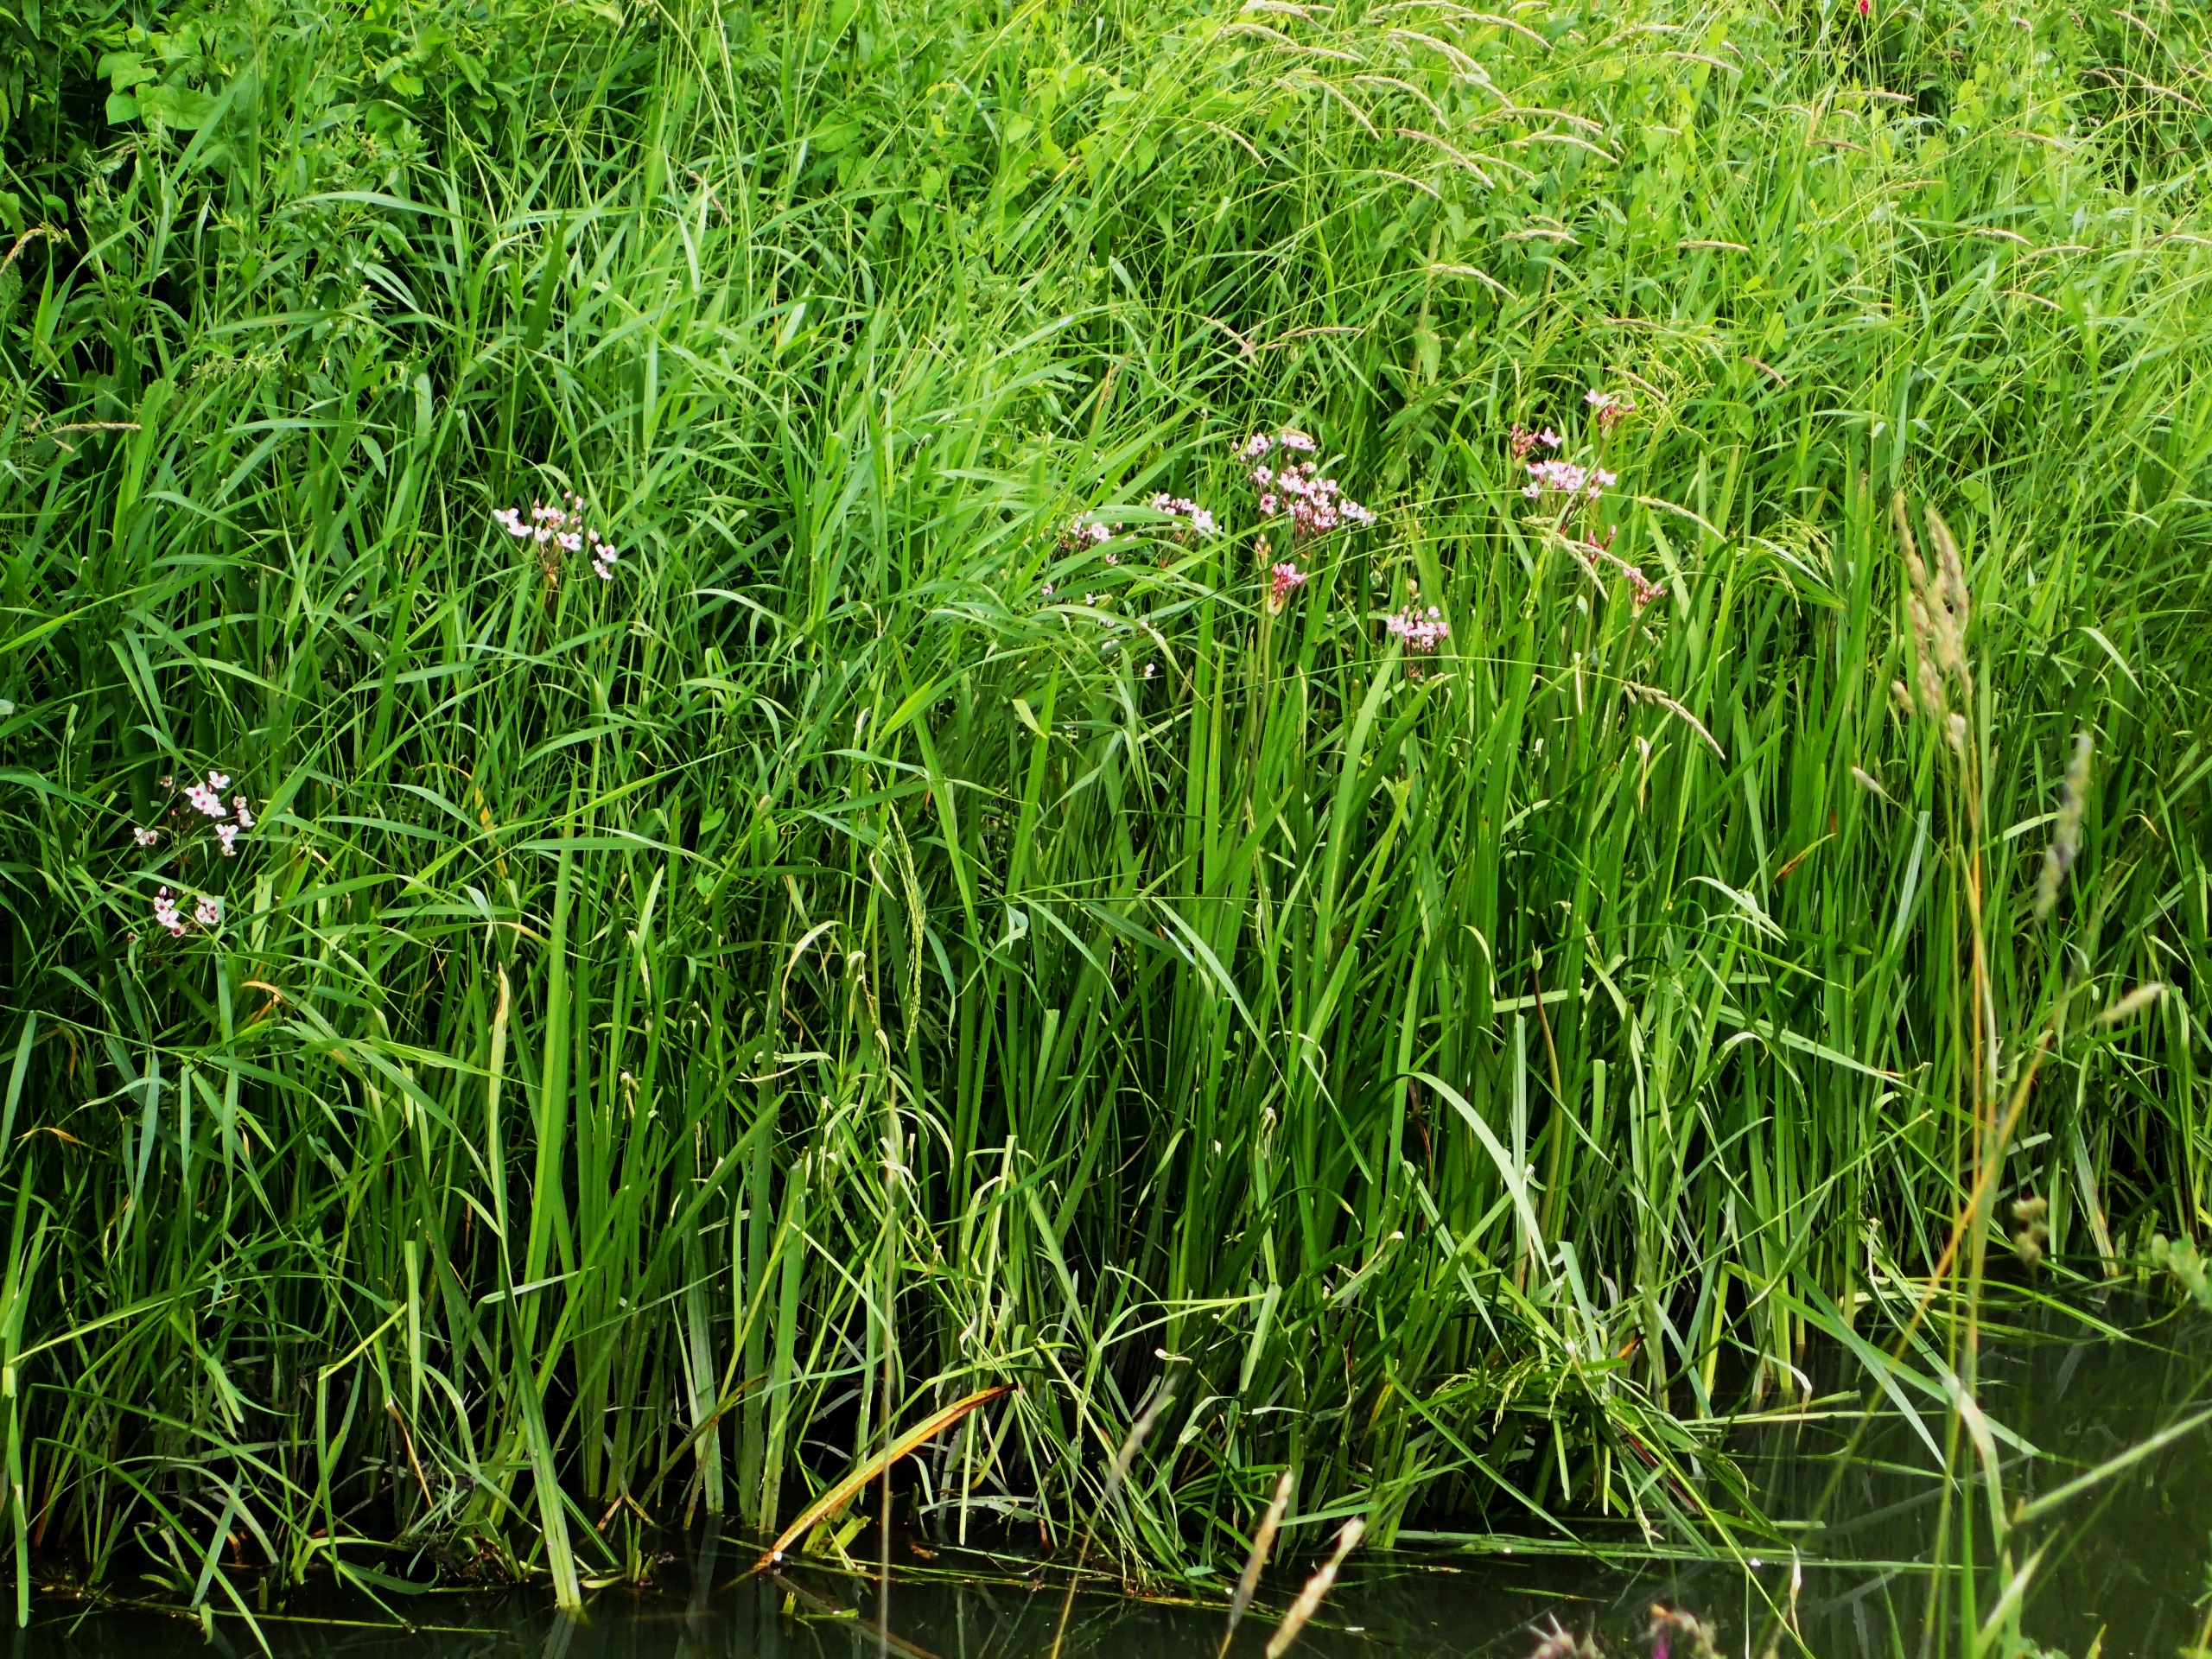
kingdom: Plantae
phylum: Tracheophyta
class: Liliopsida
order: Alismatales
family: Butomaceae
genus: Butomus
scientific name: Butomus umbellatus
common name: Brudelys
